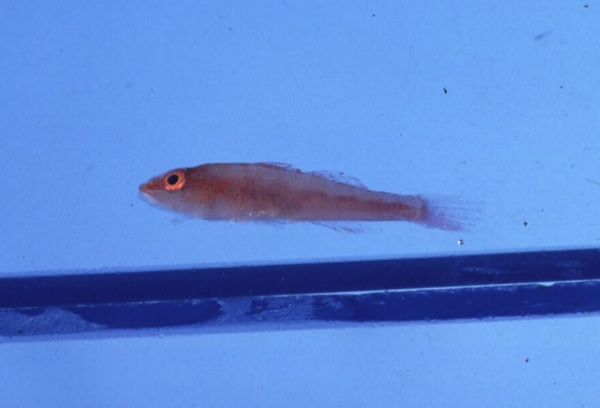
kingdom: Animalia
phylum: Chordata
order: Perciformes
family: Gobiidae
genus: Pleurosicya
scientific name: Pleurosicya mossambica
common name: Common ghost goby
